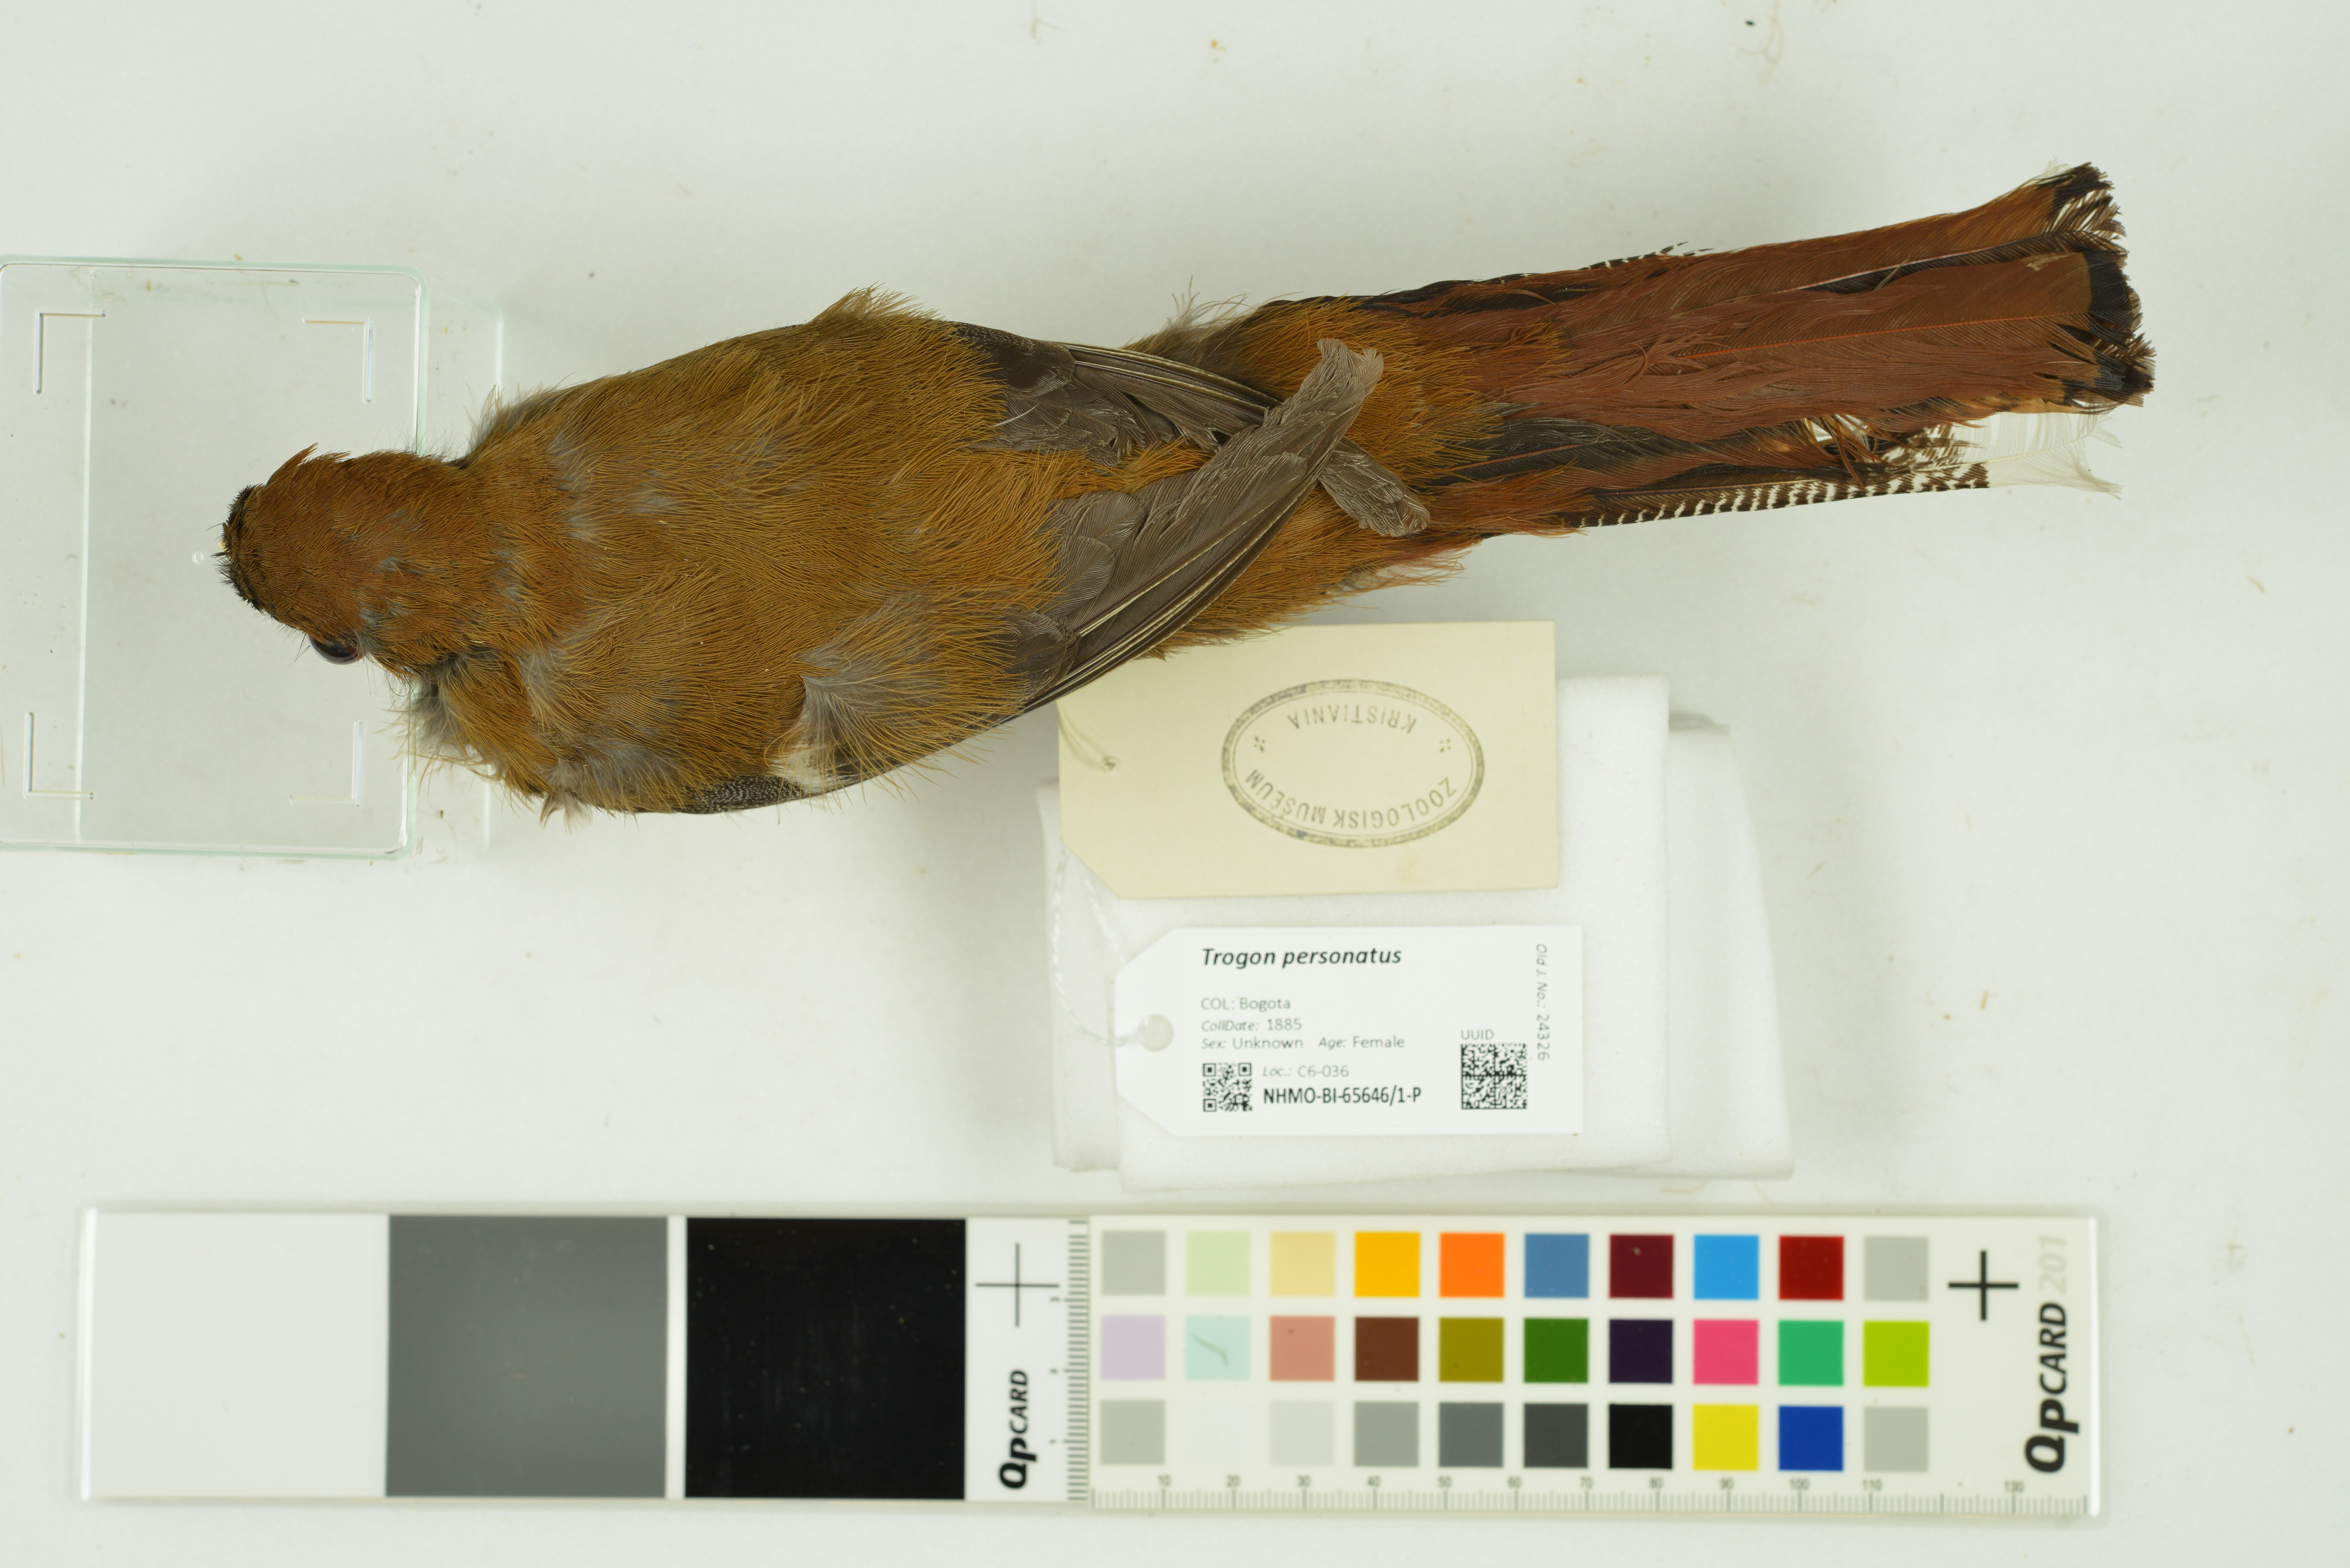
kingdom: Animalia
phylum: Chordata
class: Aves
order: Trogoniformes
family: Trogonidae
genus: Trogon
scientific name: Trogon personatus
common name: Masked trogon
